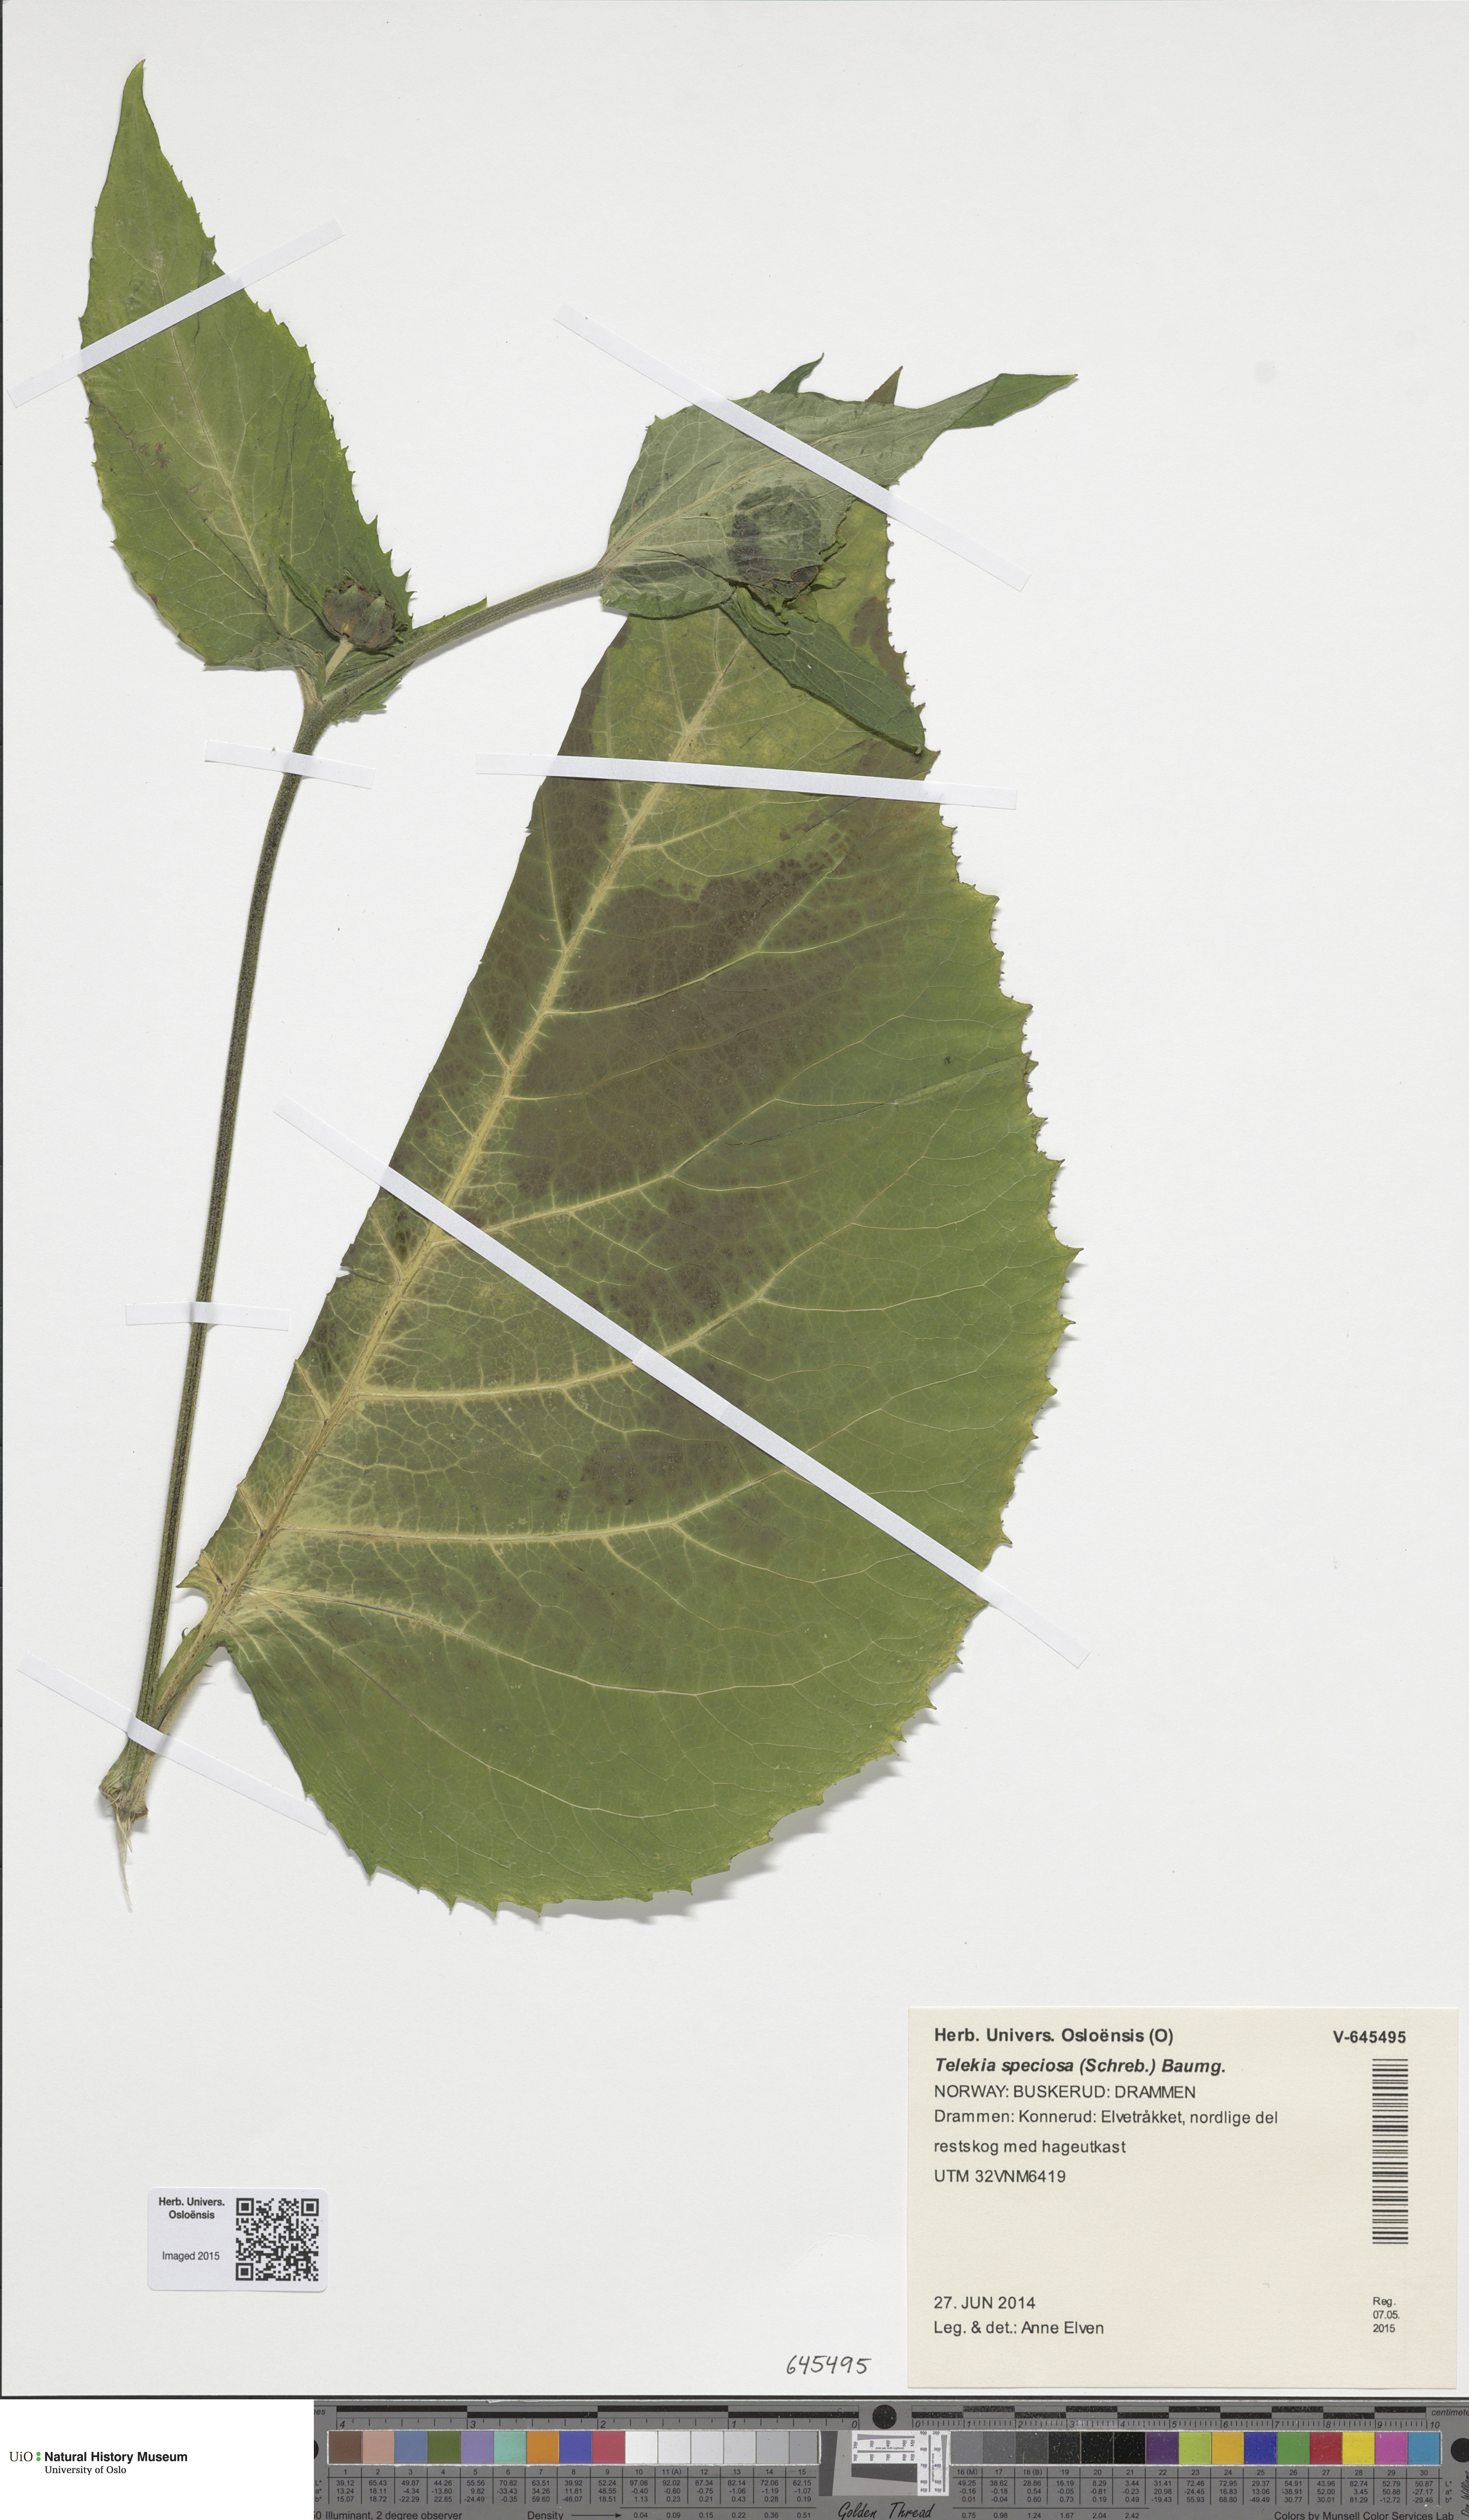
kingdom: Plantae
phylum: Tracheophyta
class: Magnoliopsida
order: Asterales
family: Asteraceae
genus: Telekia
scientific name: Telekia speciosa
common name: Yellow oxeye
